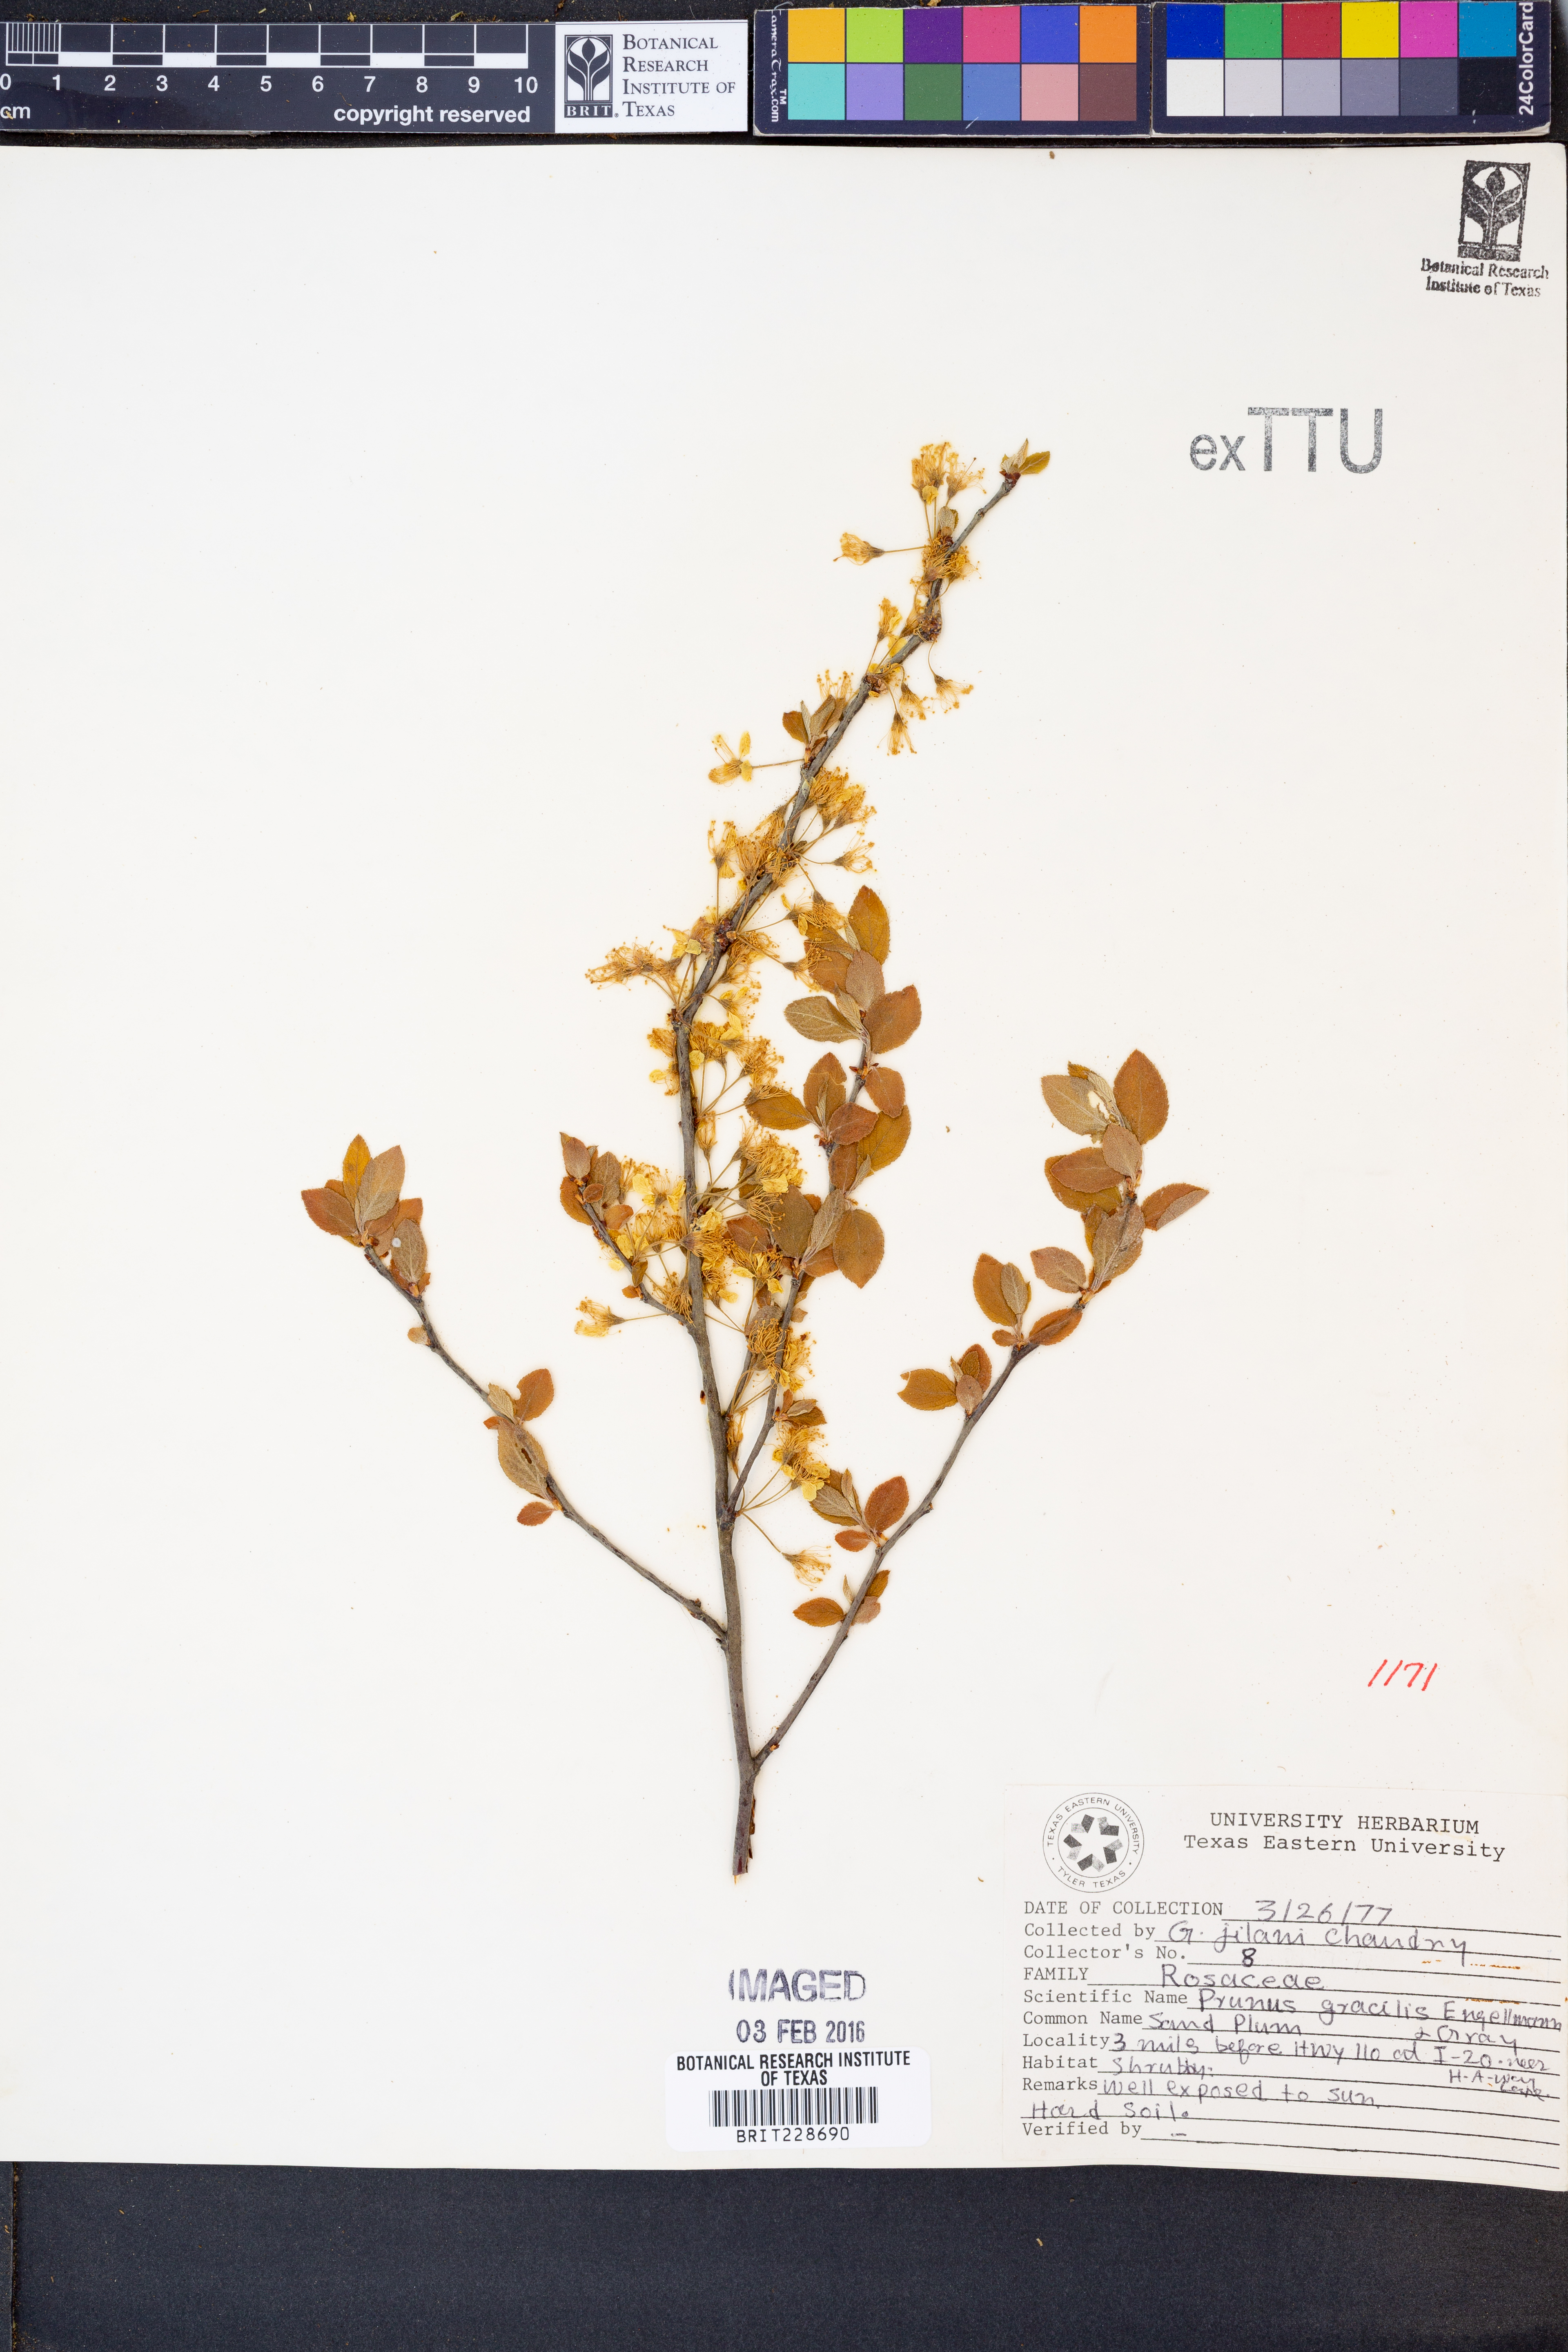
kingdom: Plantae
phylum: Tracheophyta
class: Magnoliopsida
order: Rosales
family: Rosaceae
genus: Prunus
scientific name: Prunus gracilis
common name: Oklahoma plum
